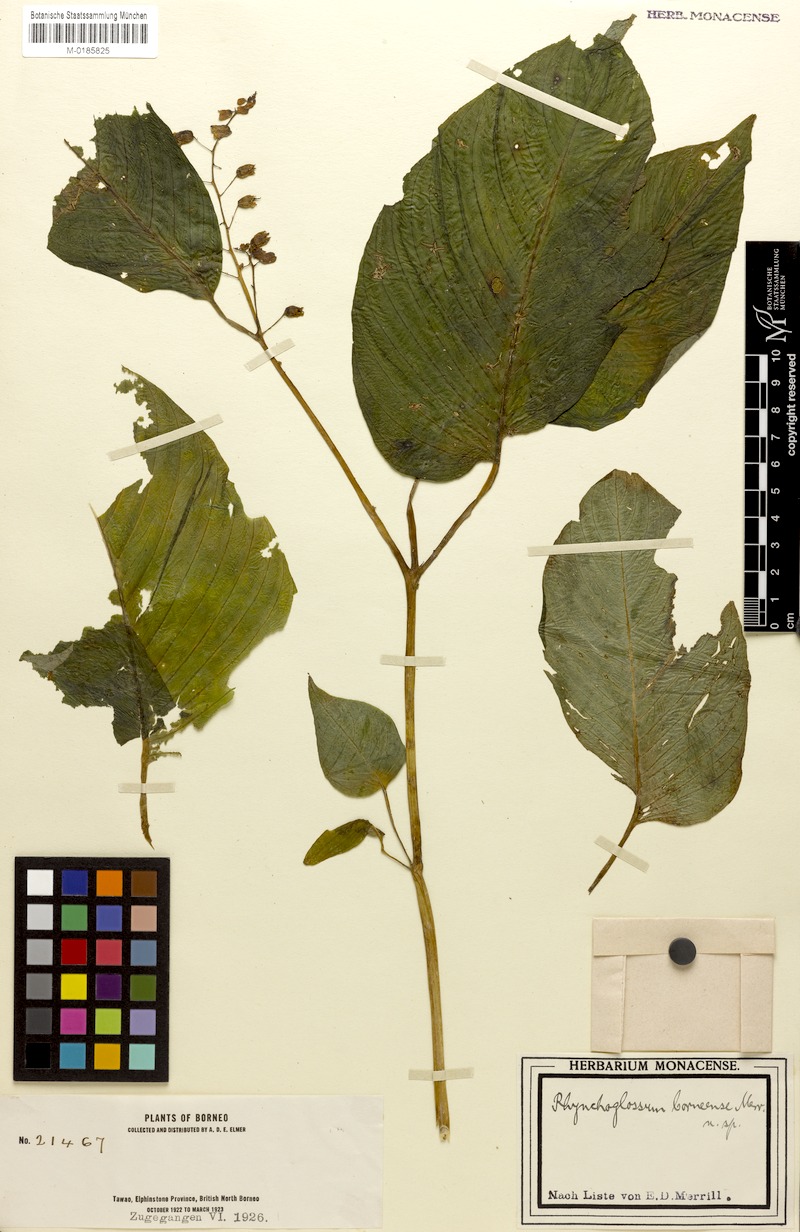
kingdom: Plantae
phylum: Tracheophyta
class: Magnoliopsida
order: Lamiales
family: Gesneriaceae
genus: Rhynchoglossum
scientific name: Rhynchoglossum borneense
